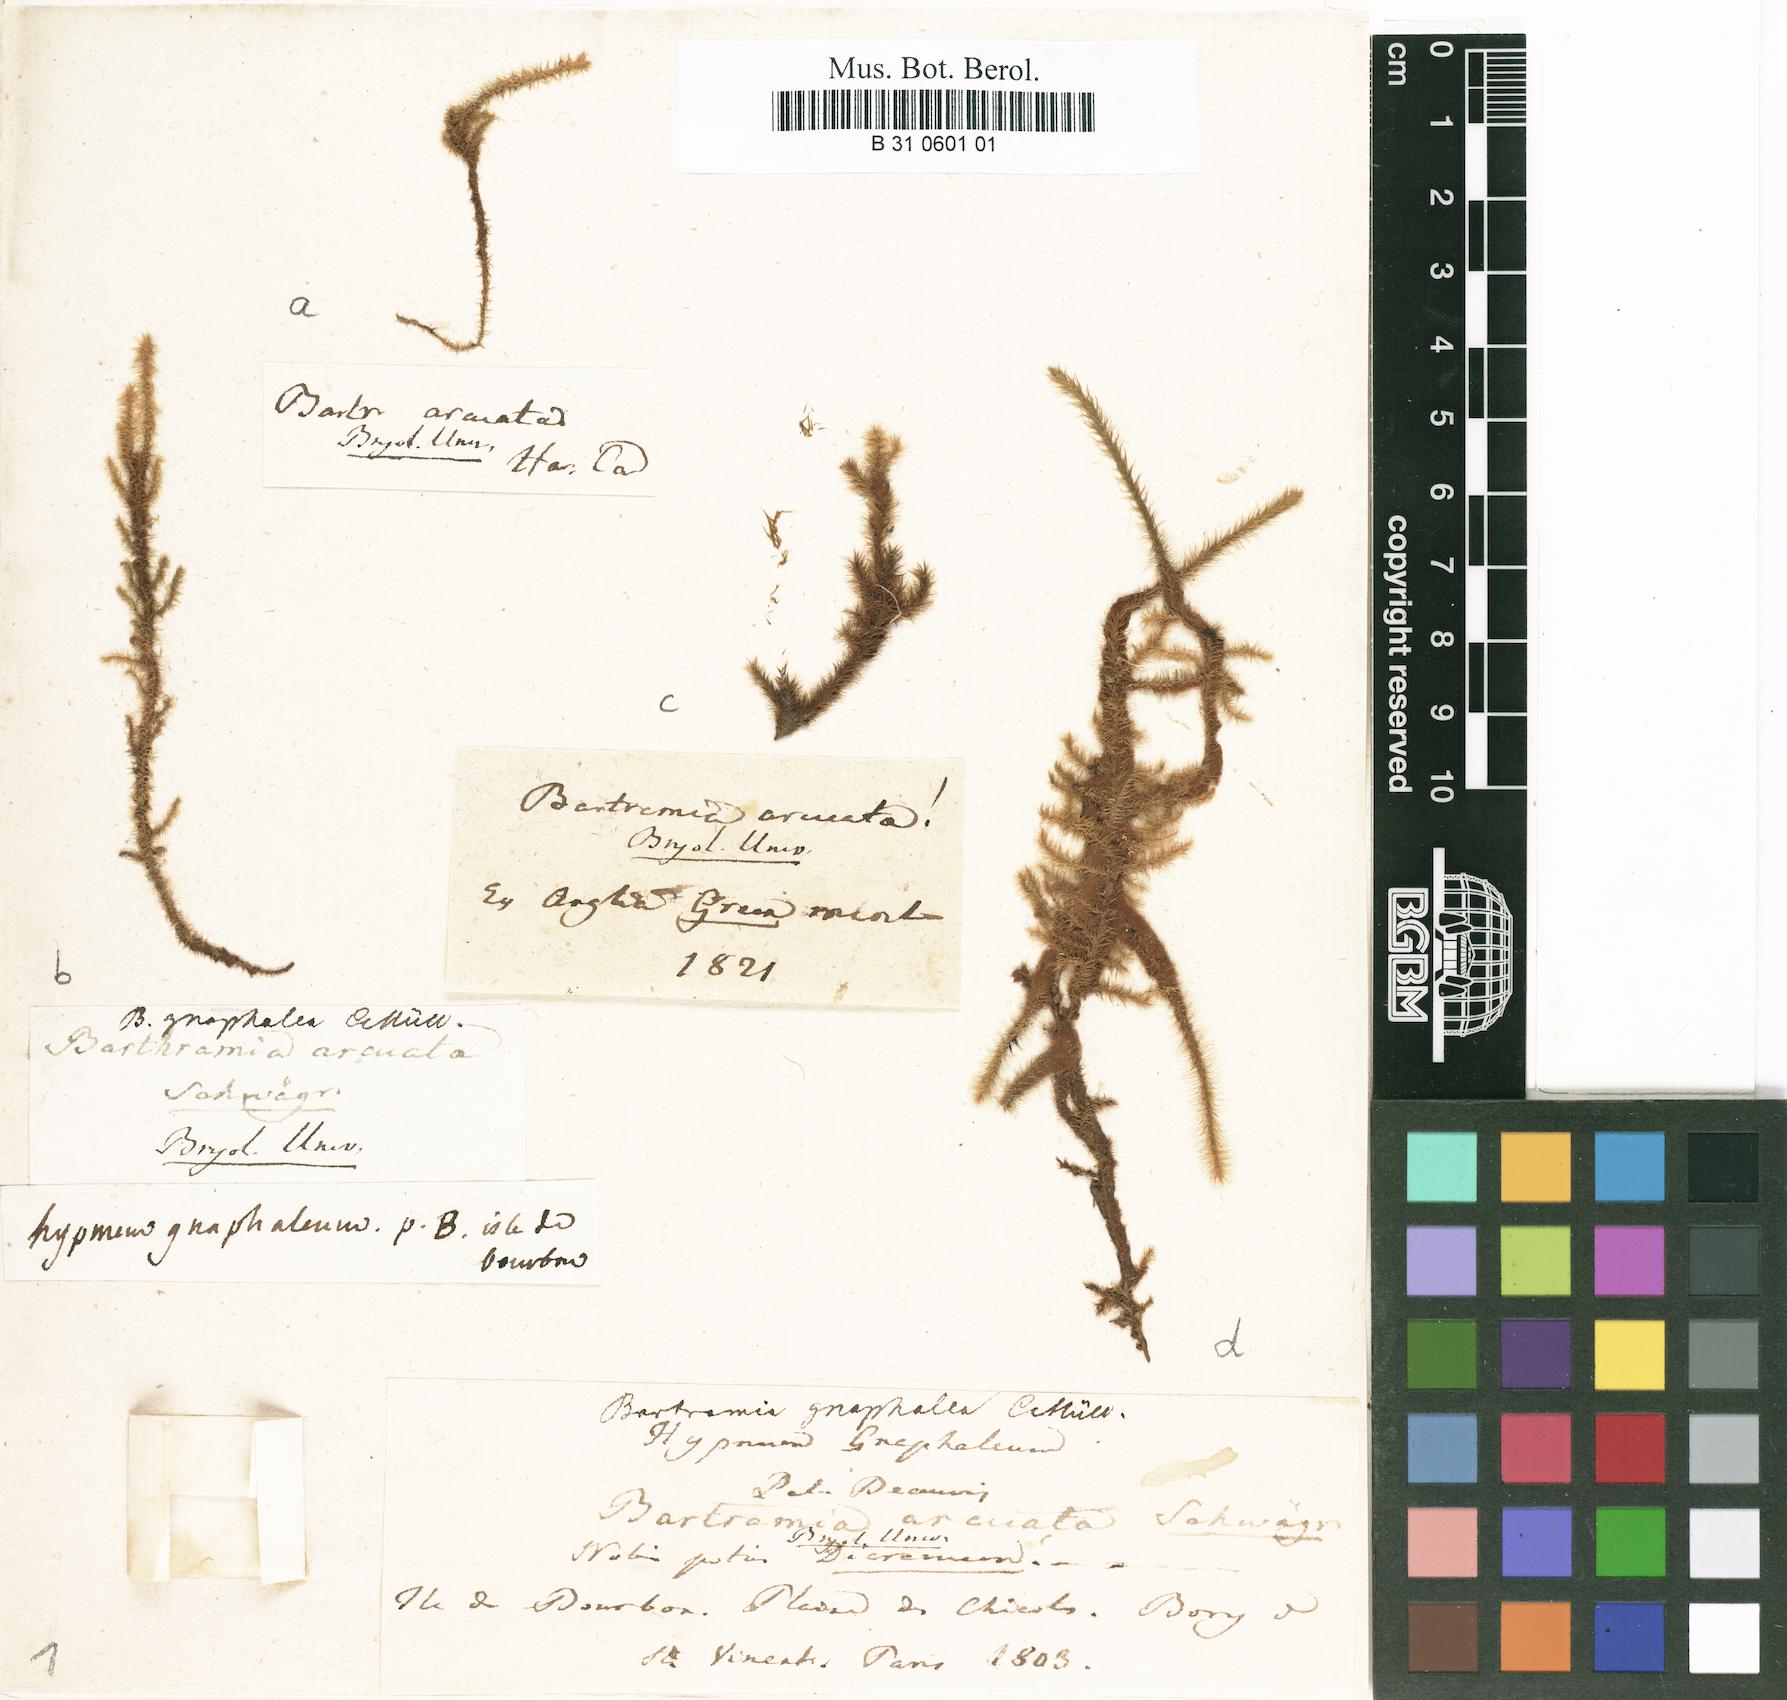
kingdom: Plantae
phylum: Bryophyta
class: Bryopsida
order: Bartramiales
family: Bartramiaceae
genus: Breutelia
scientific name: Breutelia chrysocoma
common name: Bottle-brush moss
